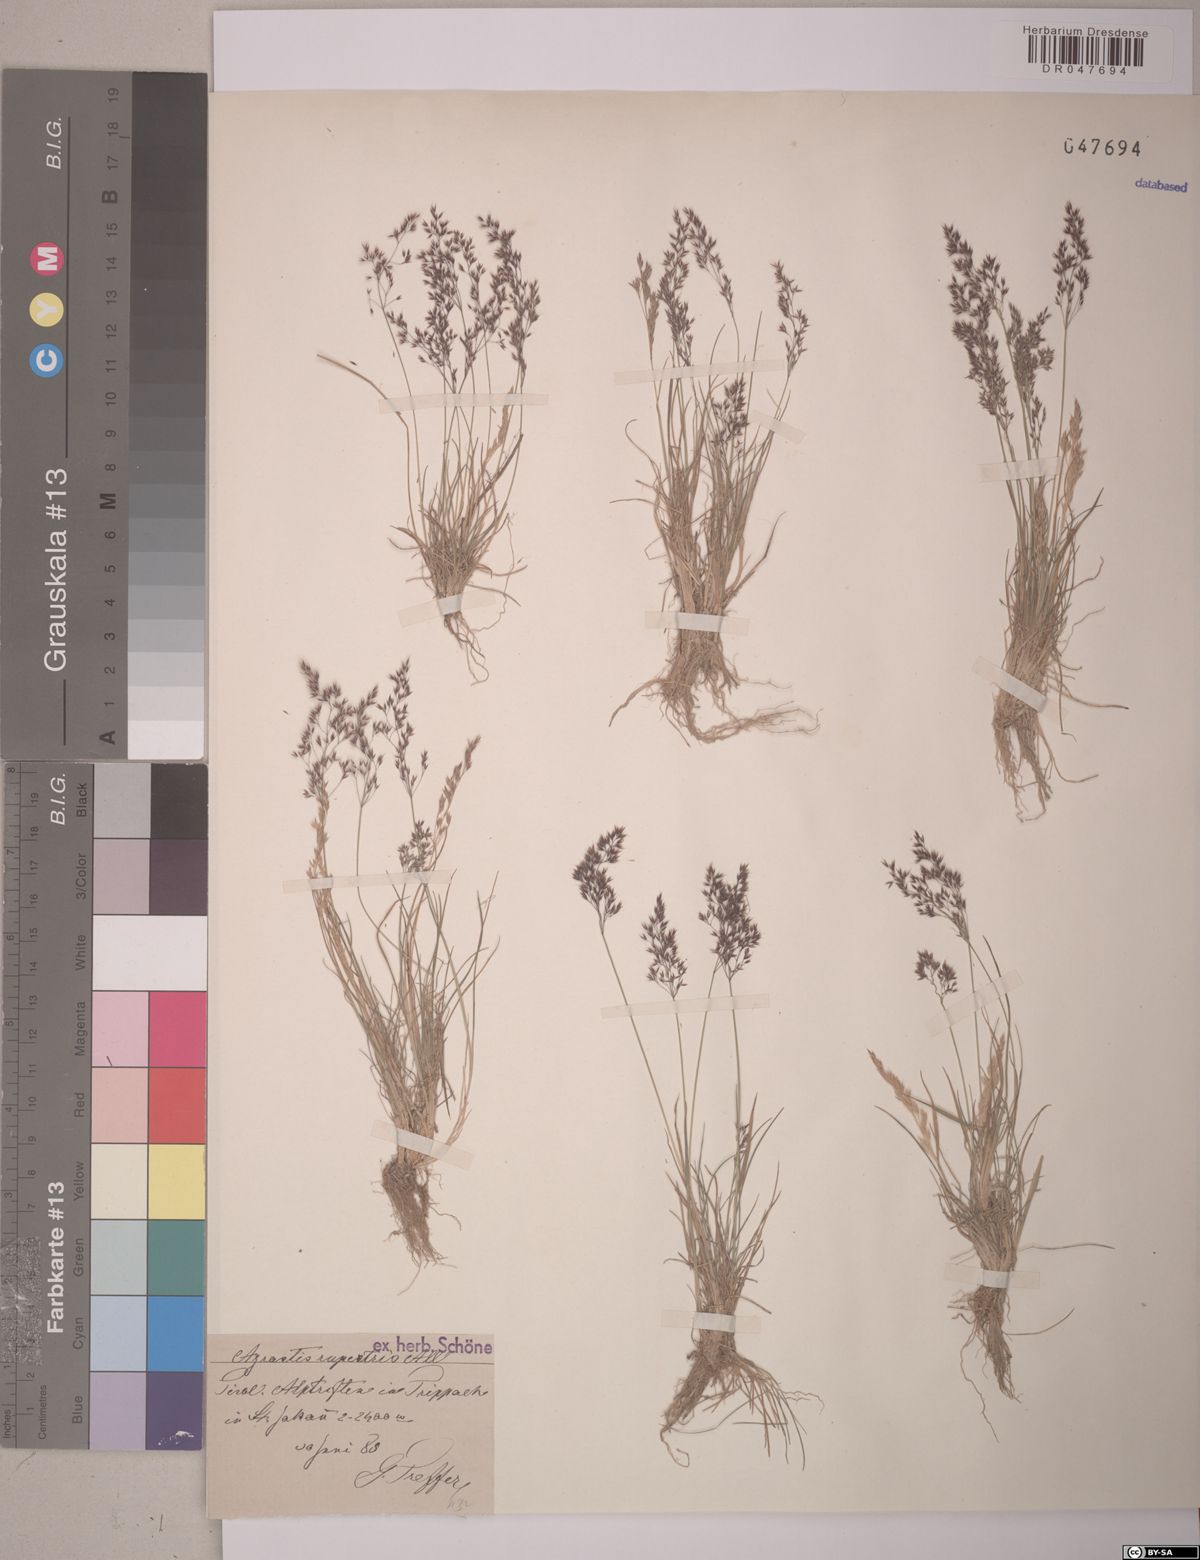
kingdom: Plantae
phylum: Tracheophyta
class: Liliopsida
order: Poales
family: Poaceae
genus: Agrostis
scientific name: Agrostis rupestris
